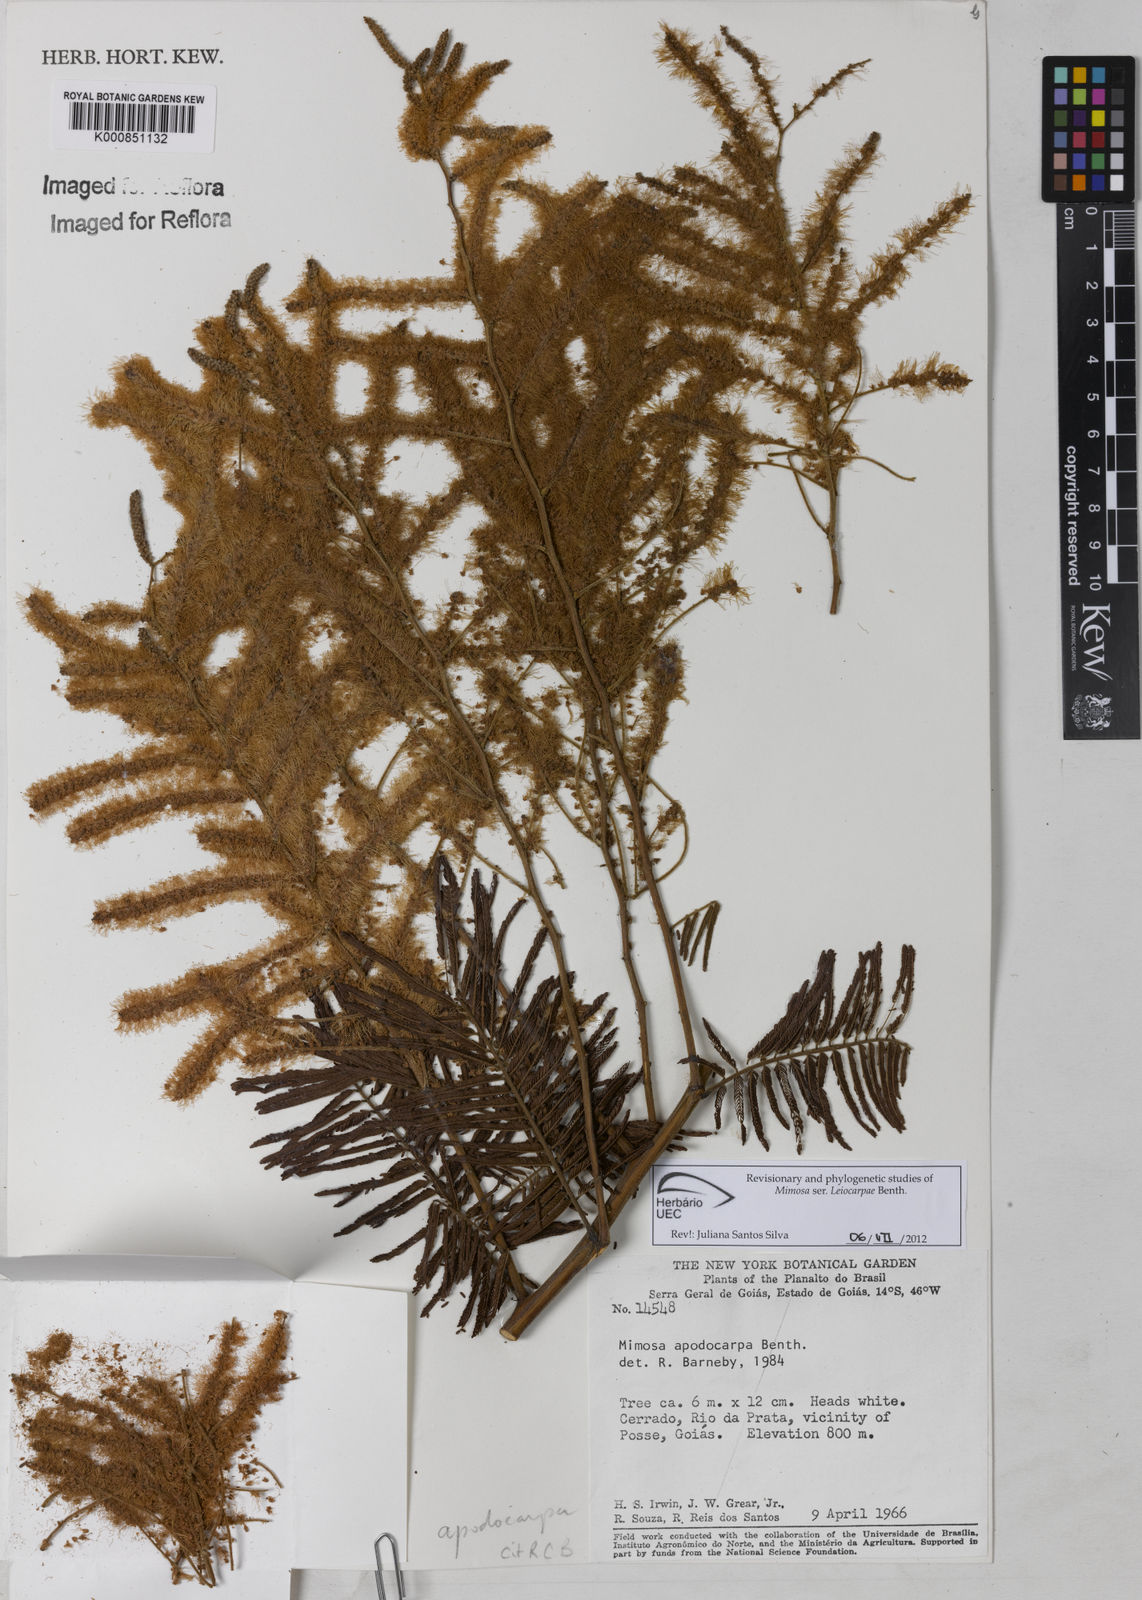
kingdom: Plantae
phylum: Tracheophyta
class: Magnoliopsida
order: Fabales
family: Fabaceae
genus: Mimosa
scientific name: Mimosa apodocarpa
